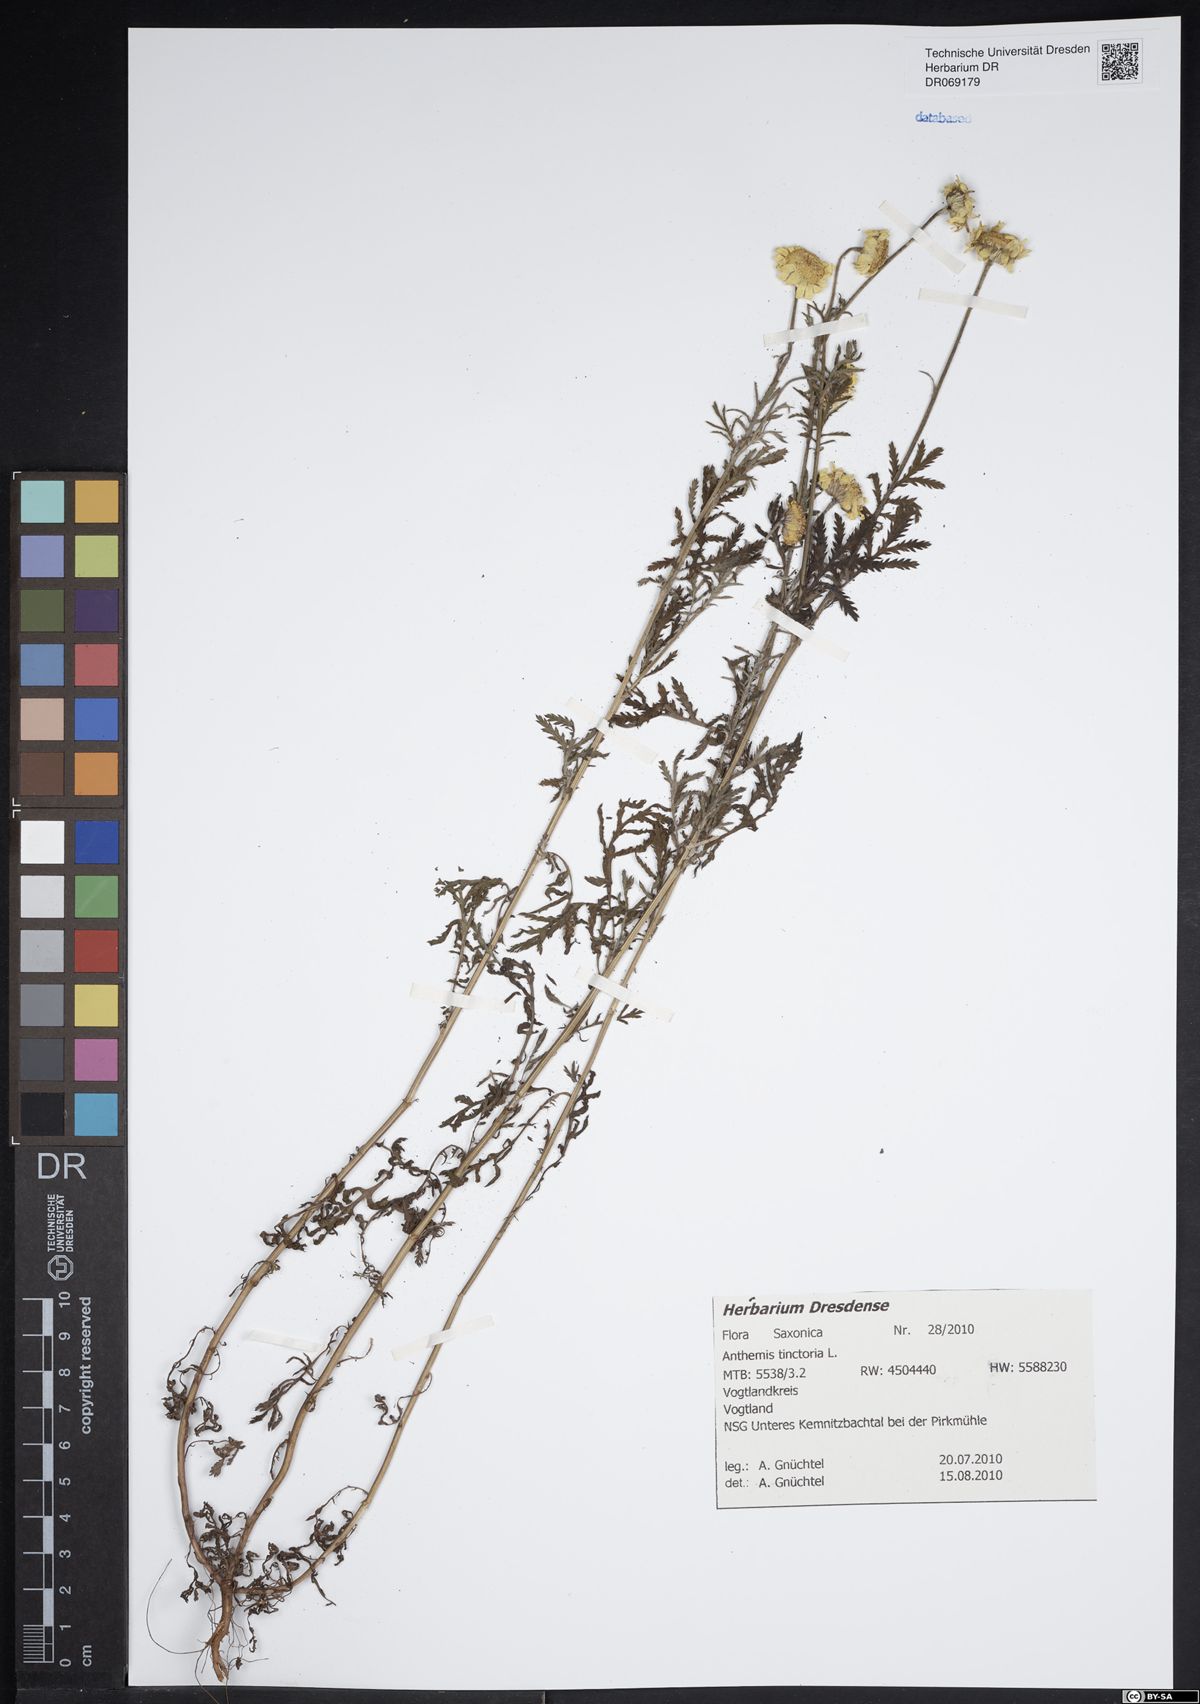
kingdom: Plantae
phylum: Tracheophyta
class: Magnoliopsida
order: Asterales
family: Asteraceae
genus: Cota
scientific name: Cota tinctoria
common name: Golden chamomile
